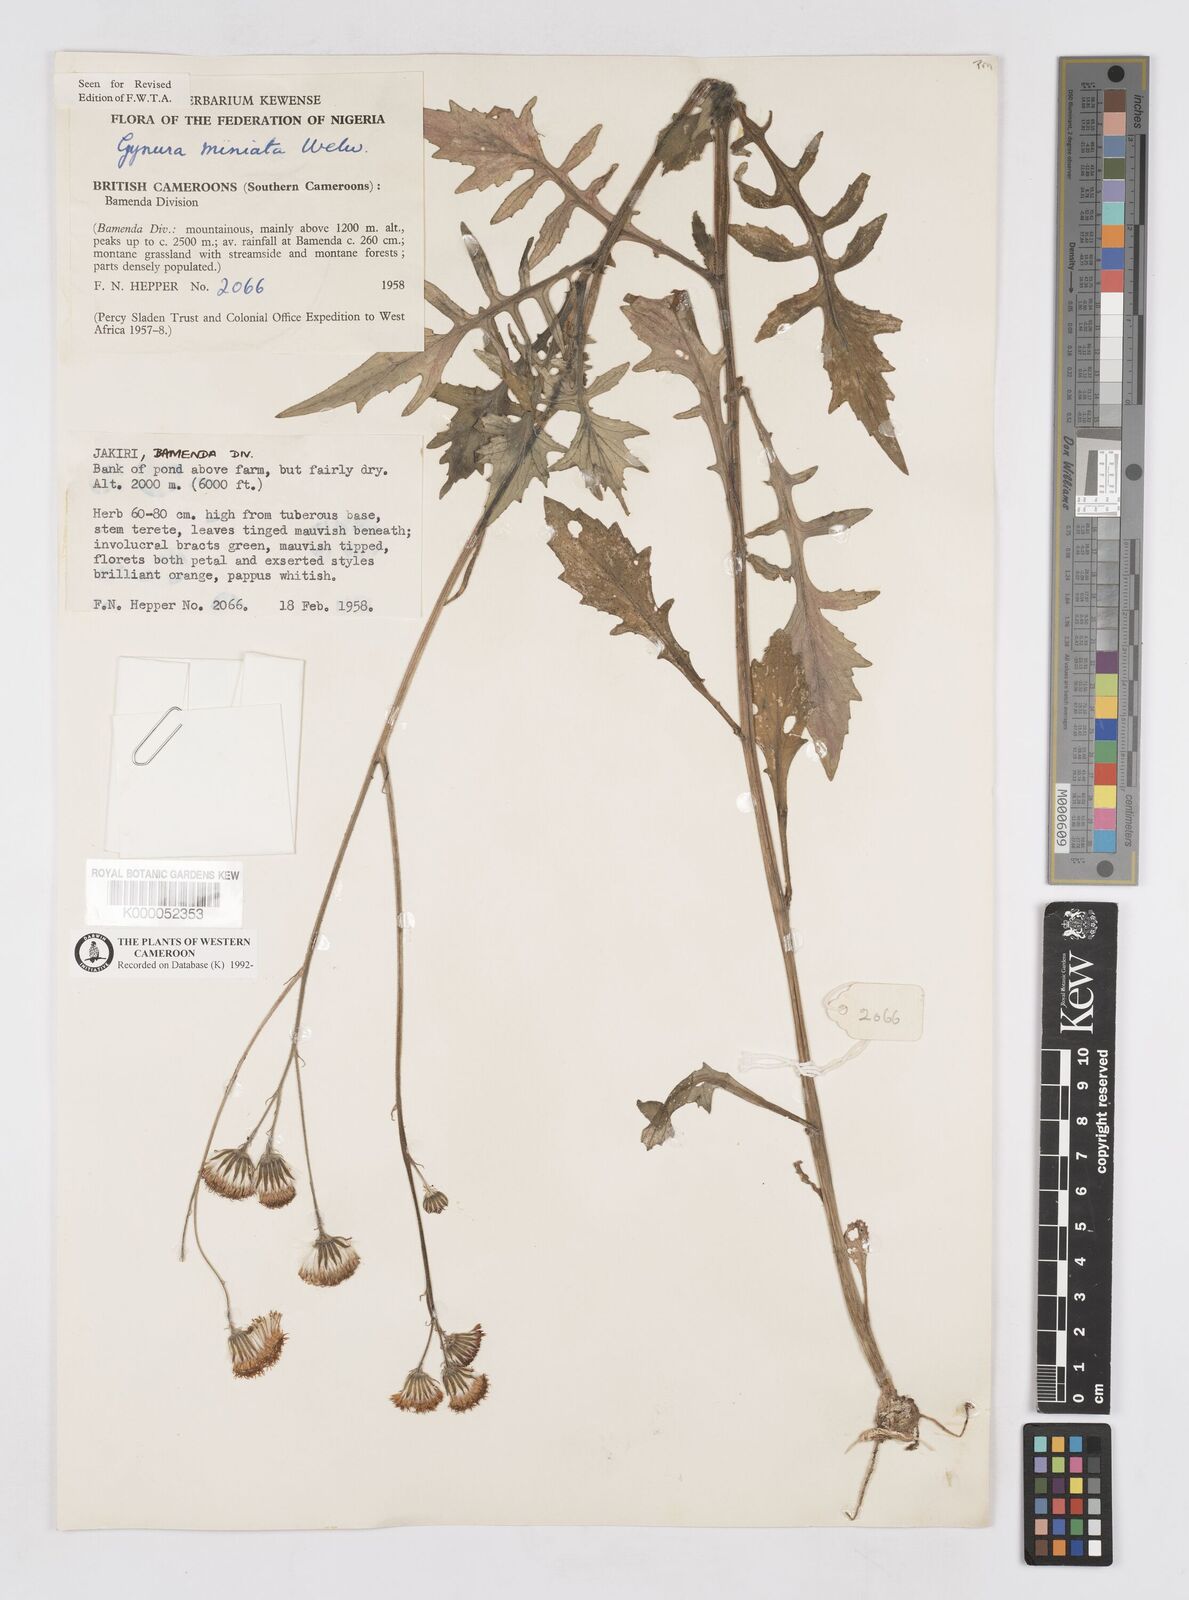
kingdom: Plantae
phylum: Tracheophyta
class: Magnoliopsida
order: Asterales
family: Asteraceae
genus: Gynura
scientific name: Gynura pseudochina
